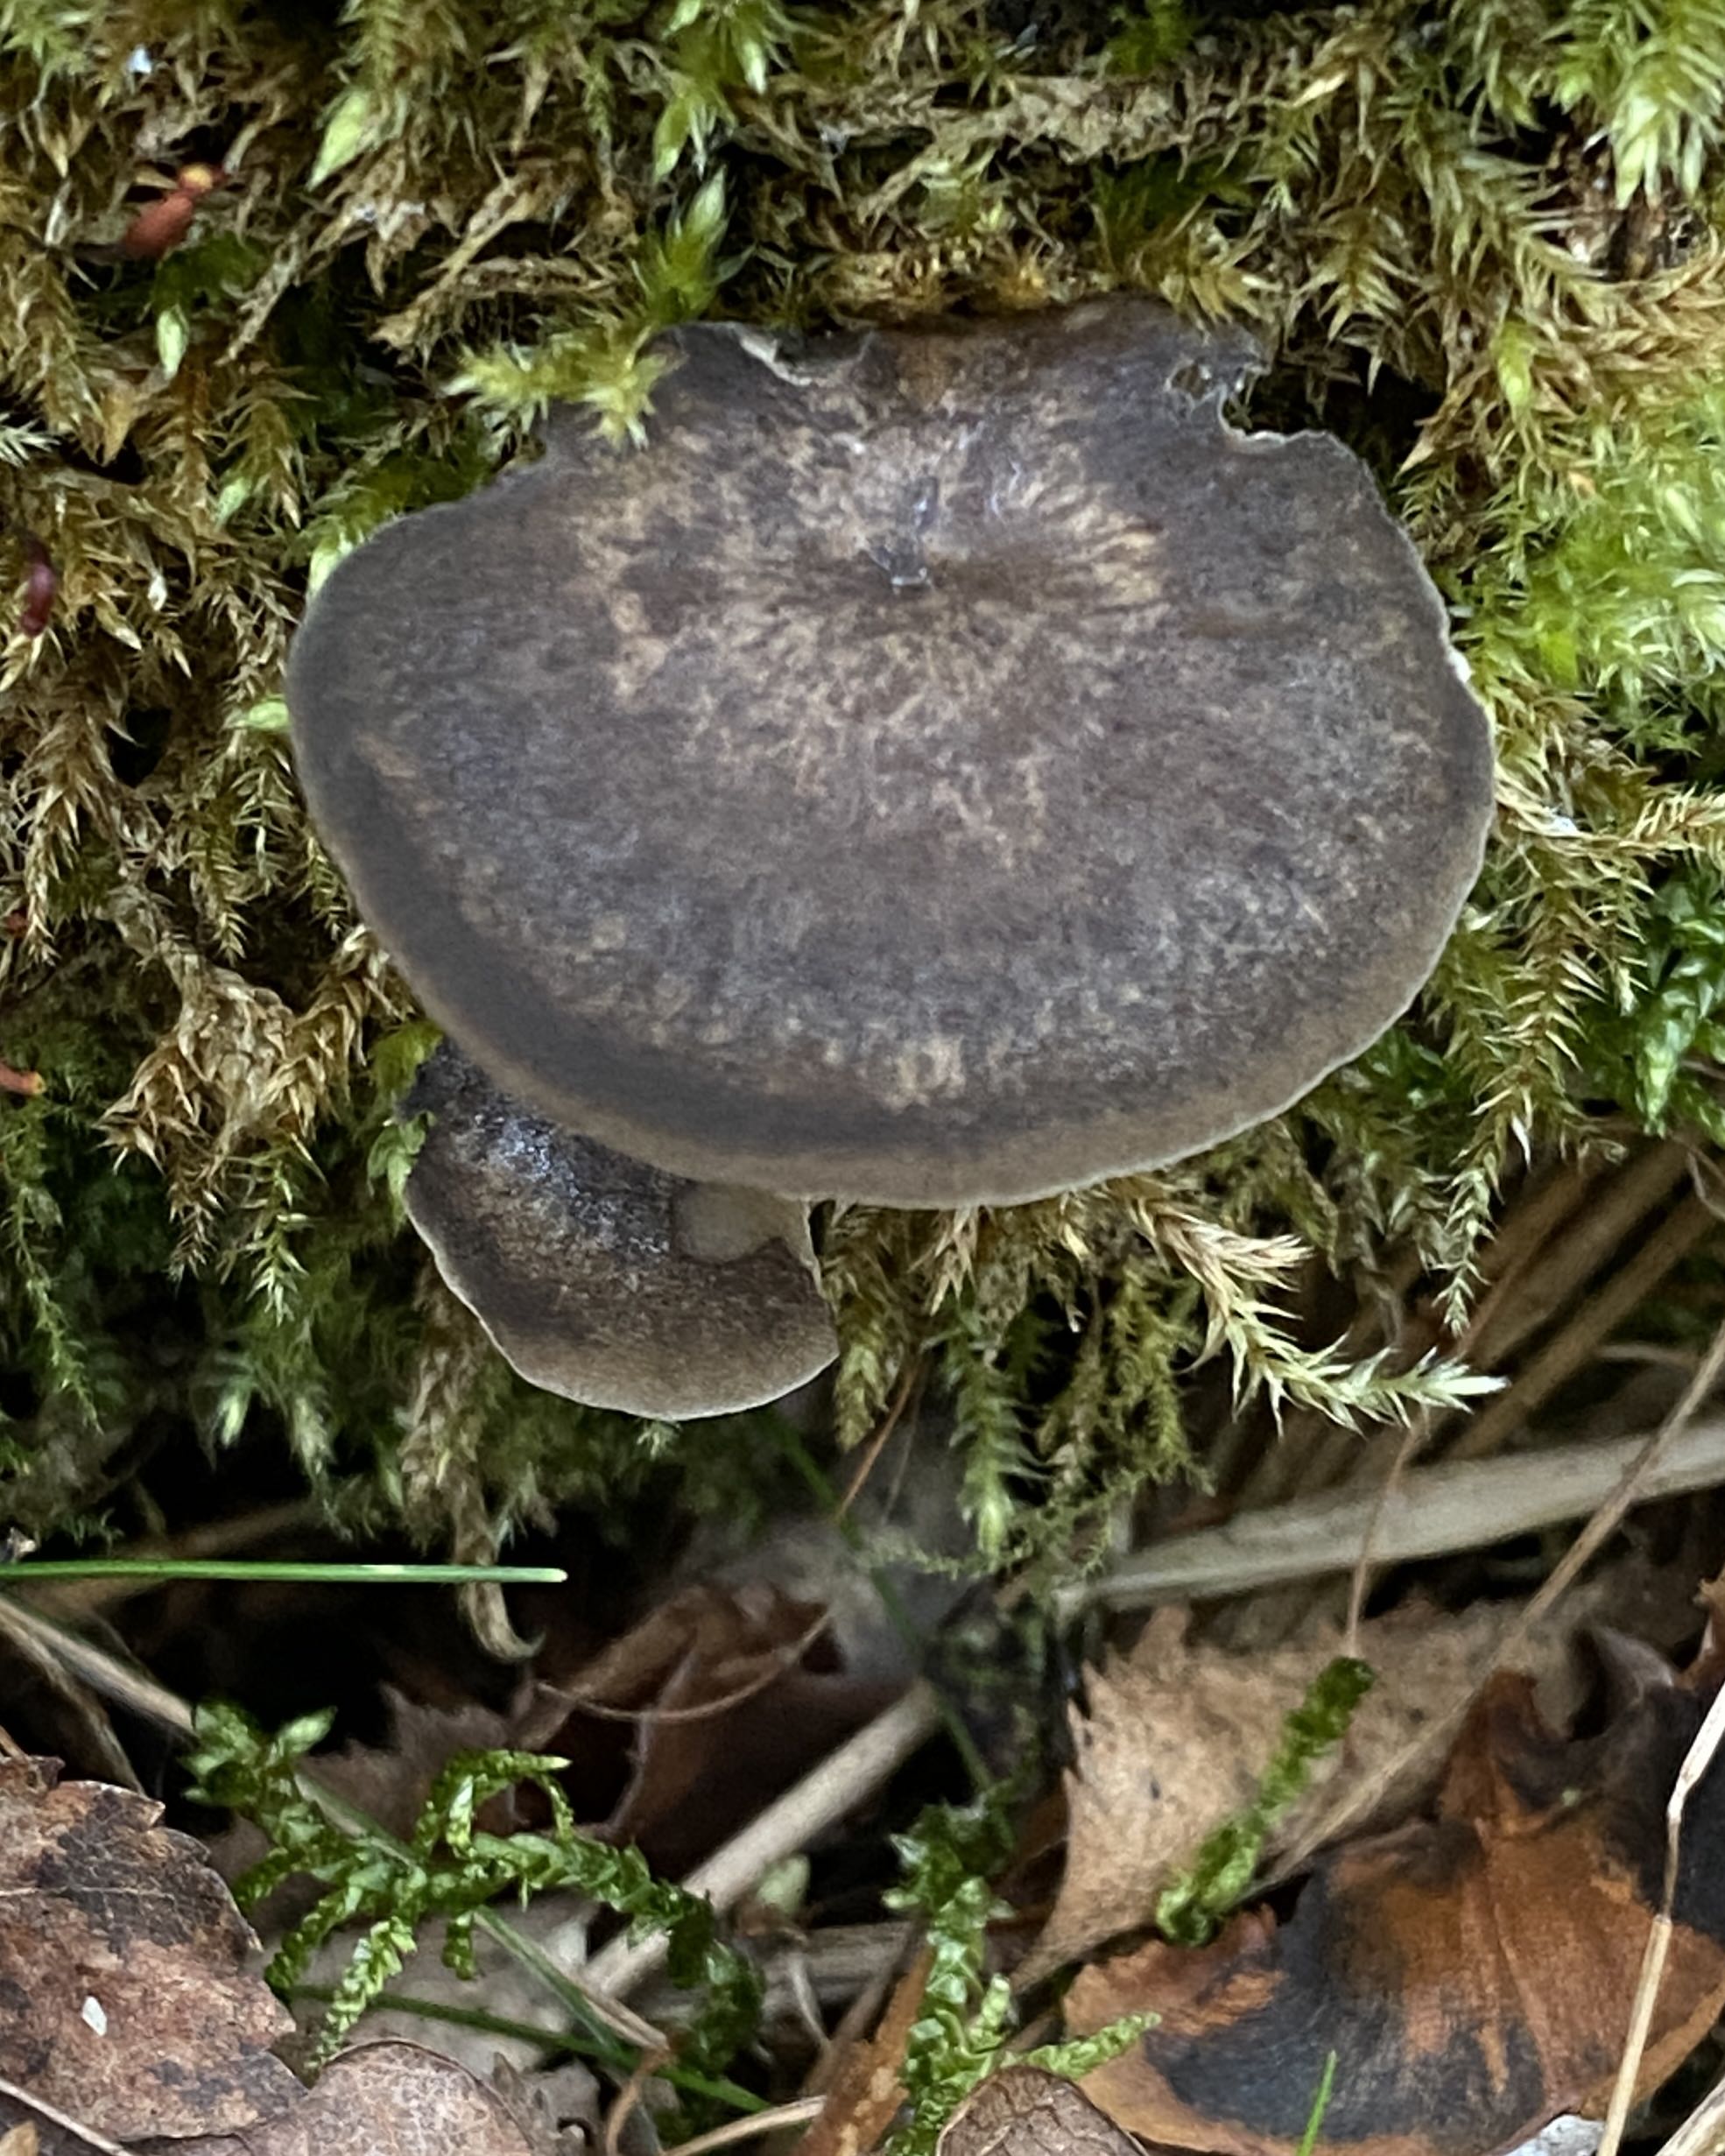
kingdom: Fungi
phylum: Basidiomycota
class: Agaricomycetes
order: Polyporales
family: Polyporaceae
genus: Lentinus
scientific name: Lentinus brumalis
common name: vinter-stilkporesvamp
